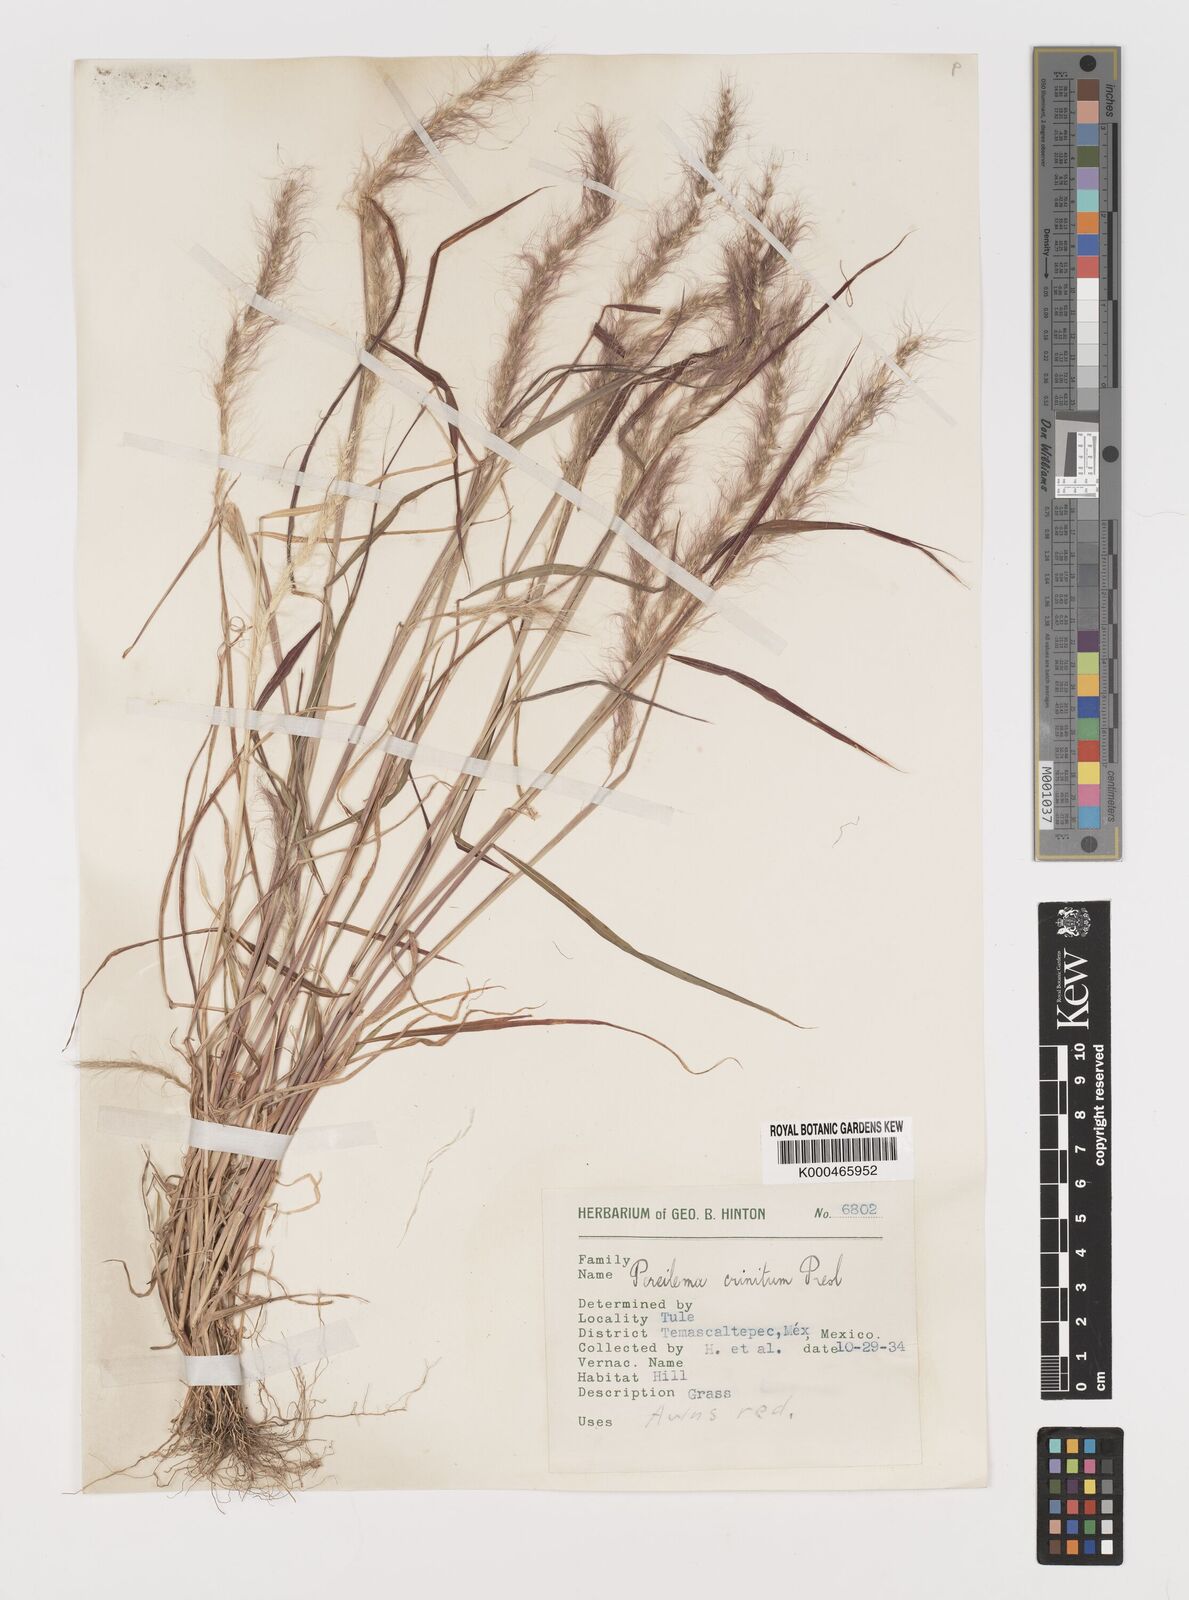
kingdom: Plantae
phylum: Tracheophyta
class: Liliopsida
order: Poales
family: Poaceae
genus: Muhlenbergia
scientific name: Muhlenbergia pereilema
